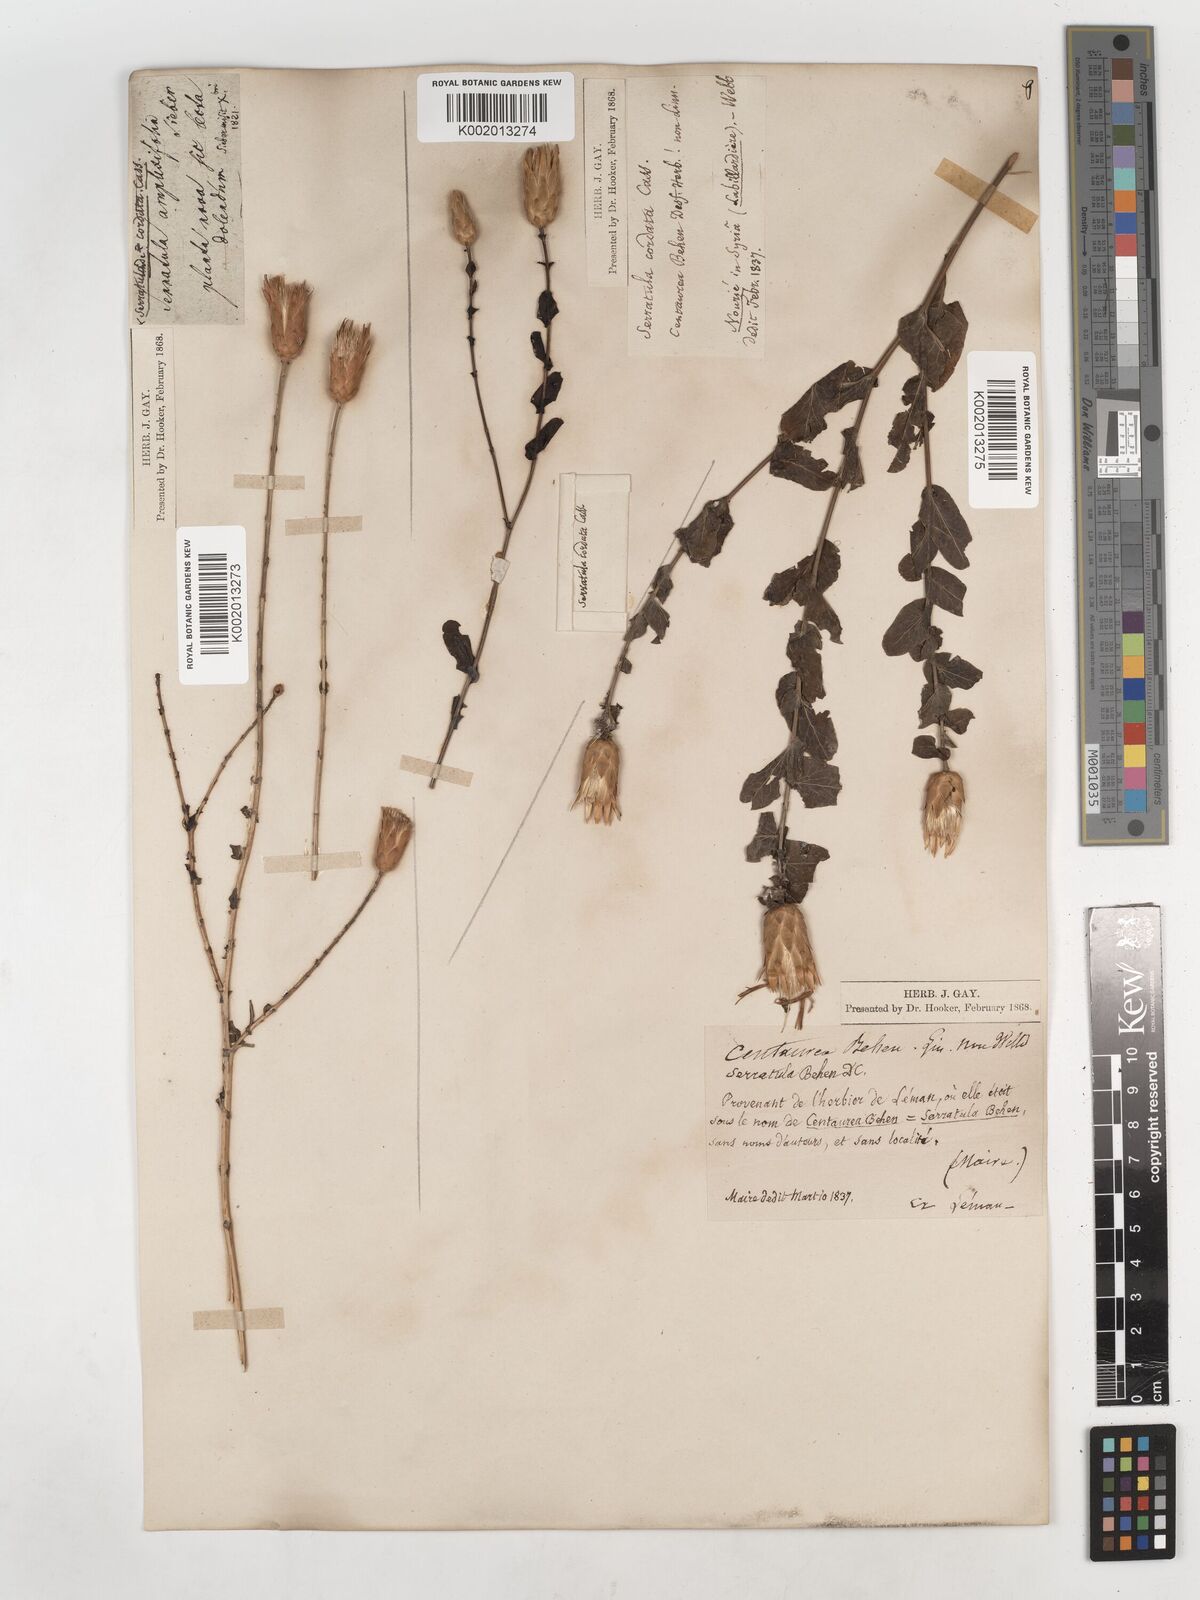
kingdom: Plantae
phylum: Tracheophyta
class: Magnoliopsida
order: Asterales
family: Asteraceae
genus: Klasea
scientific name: Klasea cerinthifolia
